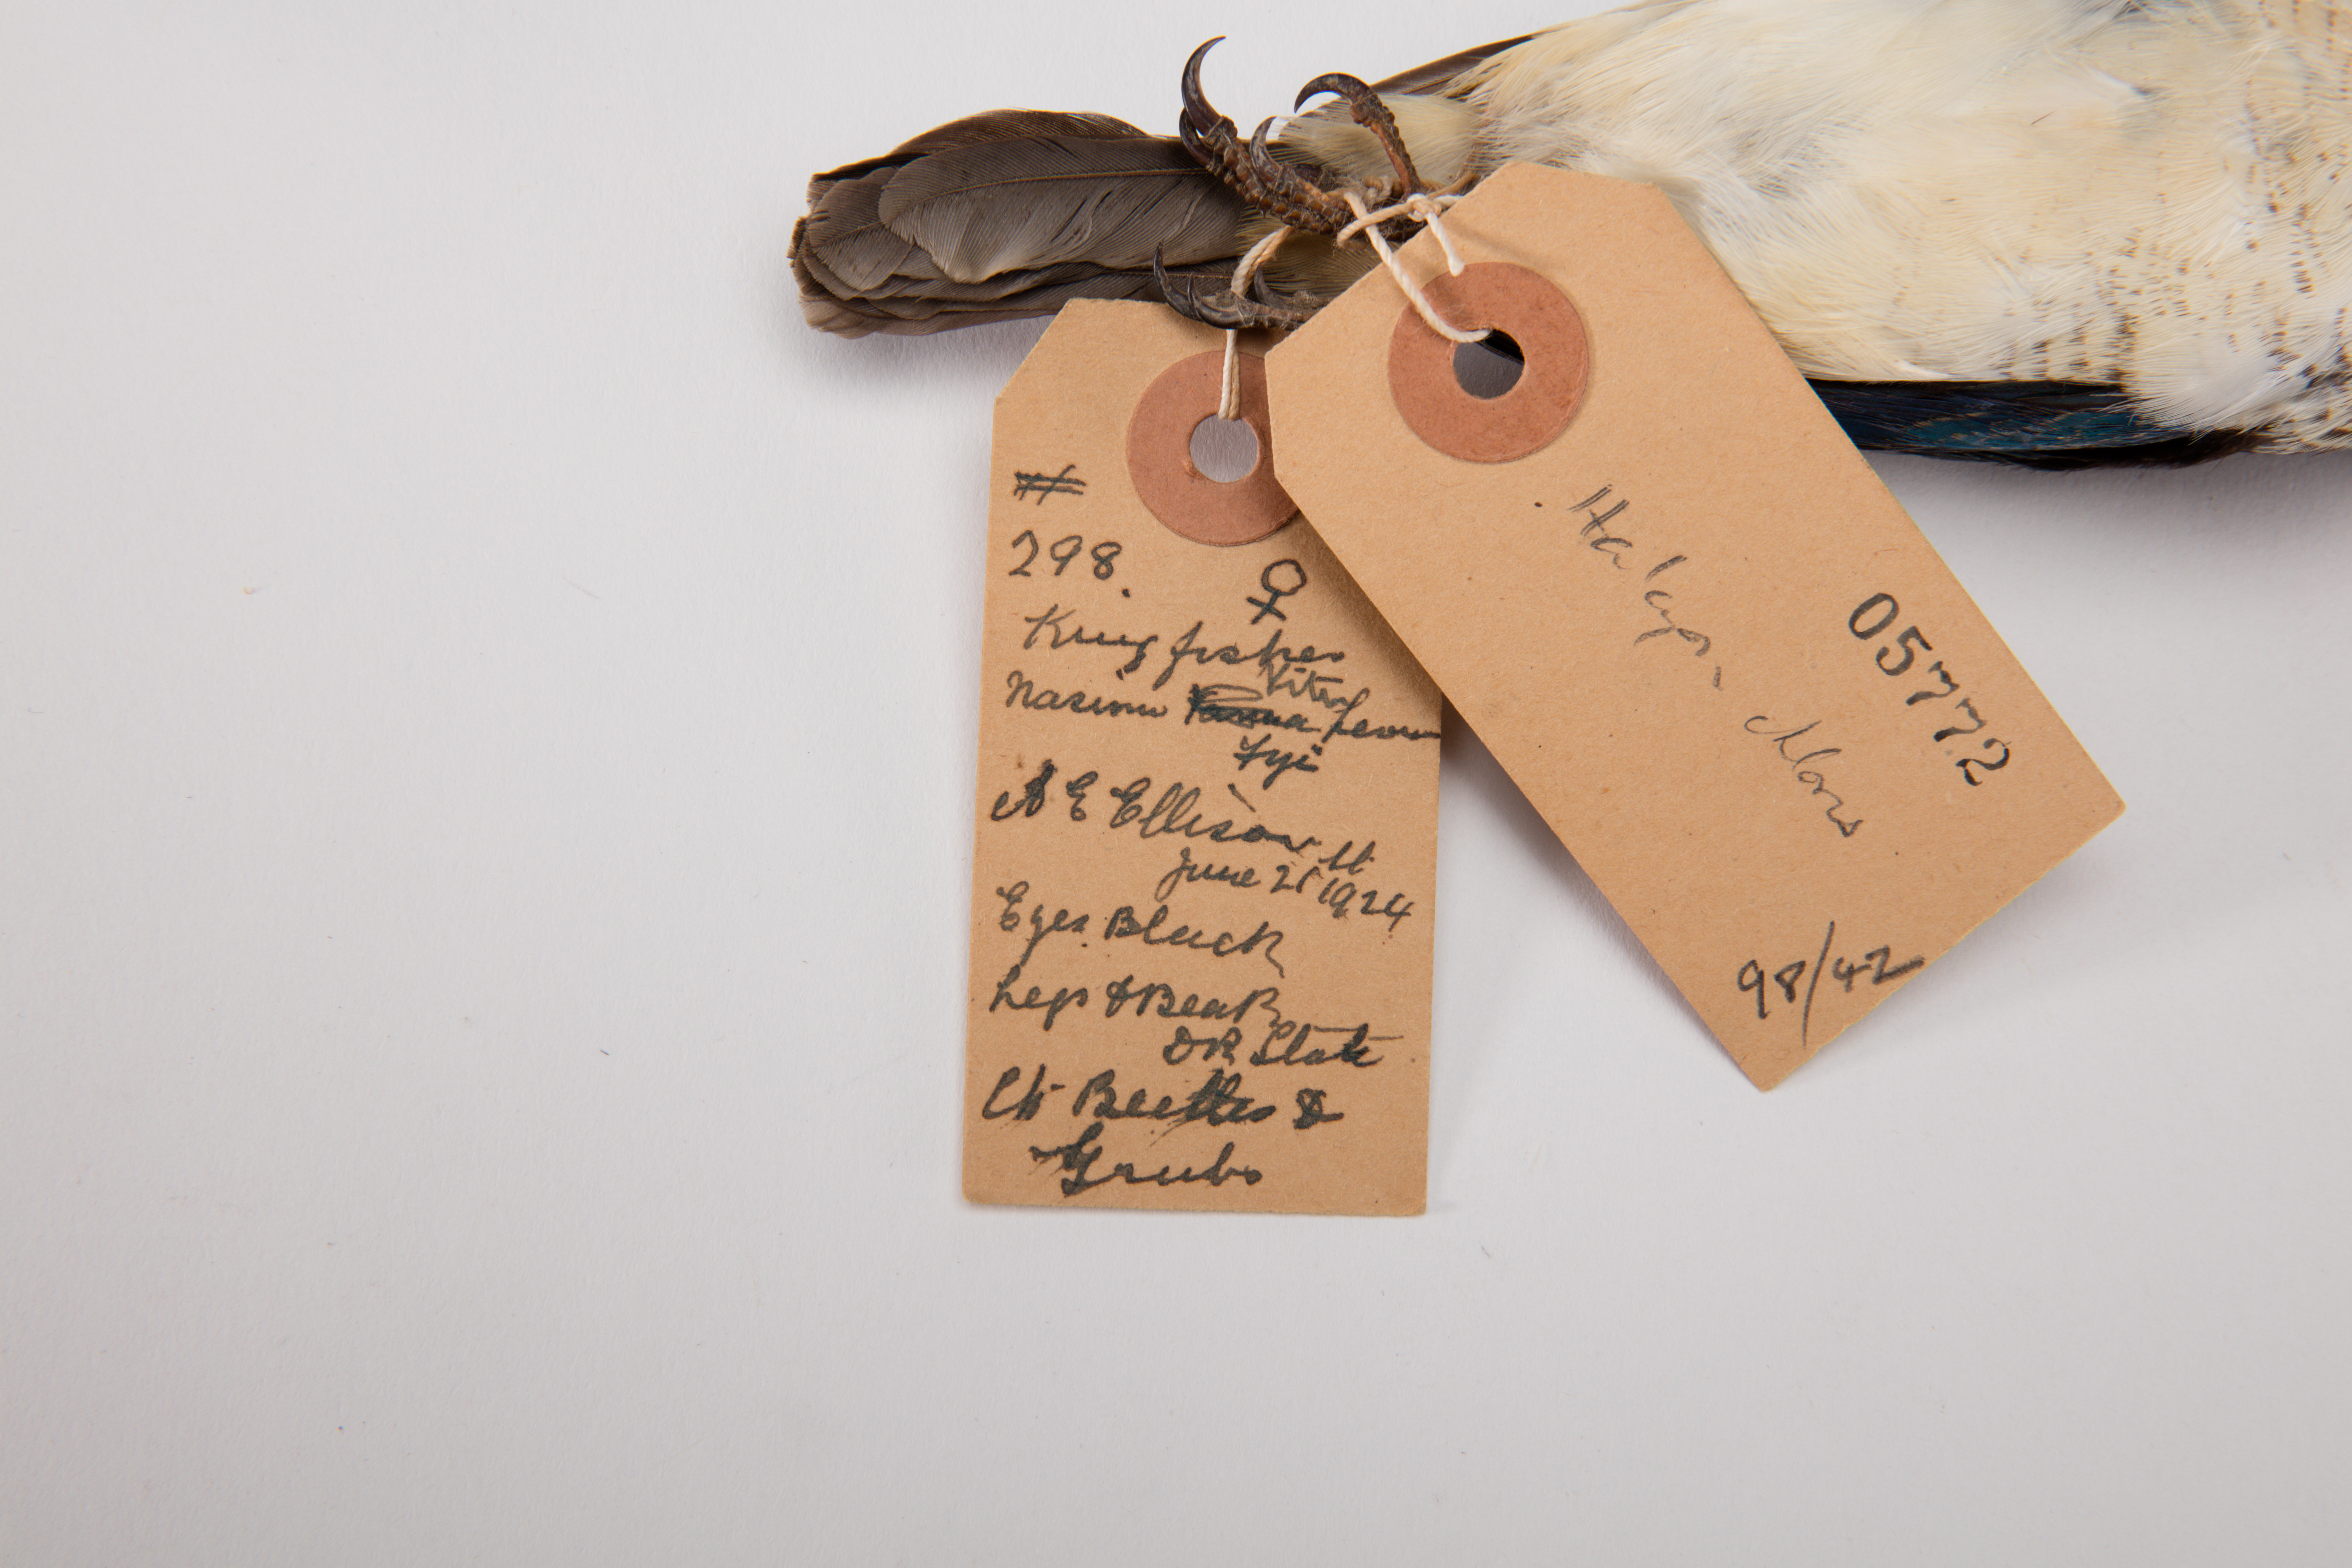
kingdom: Animalia
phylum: Chordata
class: Aves
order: Coraciiformes
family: Alcedinidae
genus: Todiramphus
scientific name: Todiramphus chloris
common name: Collared kingfisher
